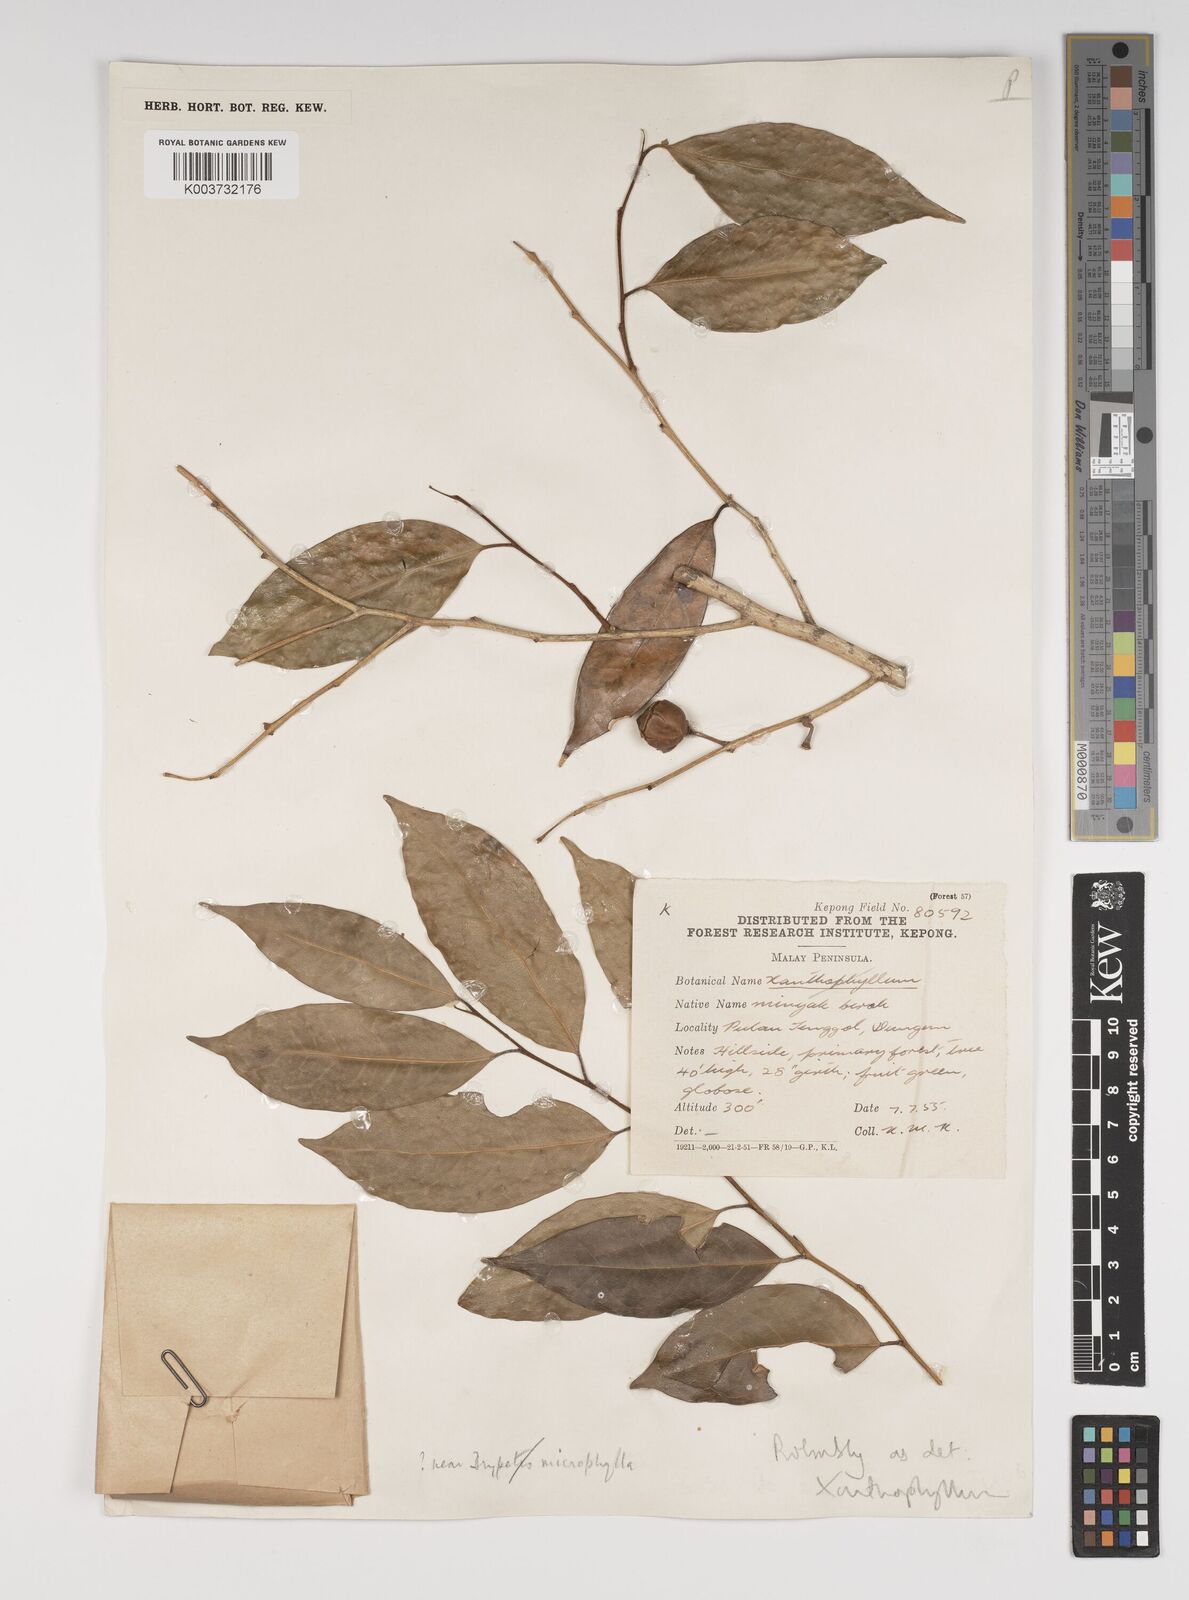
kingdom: Plantae
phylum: Tracheophyta
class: Magnoliopsida
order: Fabales
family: Polygalaceae
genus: Xanthophyllum
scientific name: Xanthophyllum
